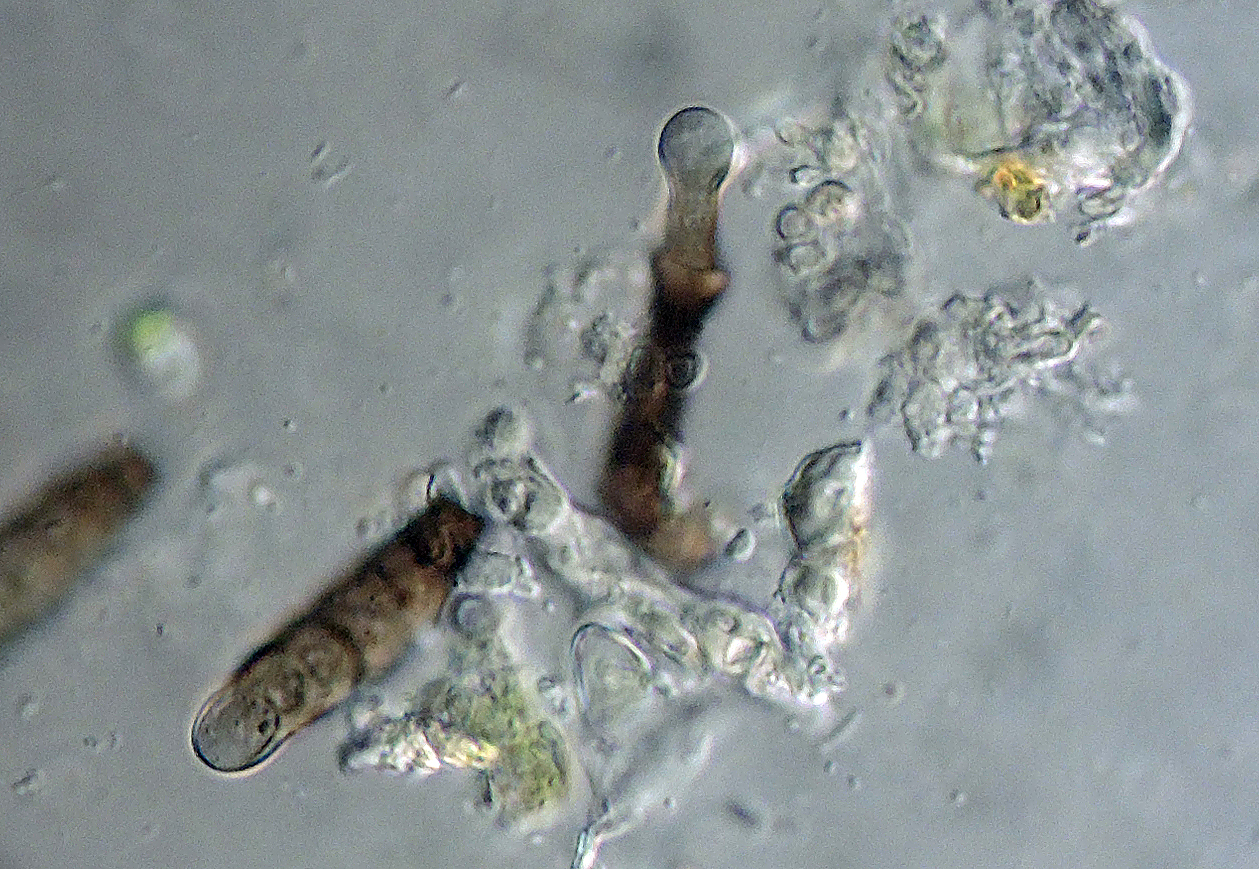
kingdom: Fungi
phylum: Ascomycota
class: Dothideomycetes
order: Pleosporales
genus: Sporidesmium
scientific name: Sporidesmium rubi
